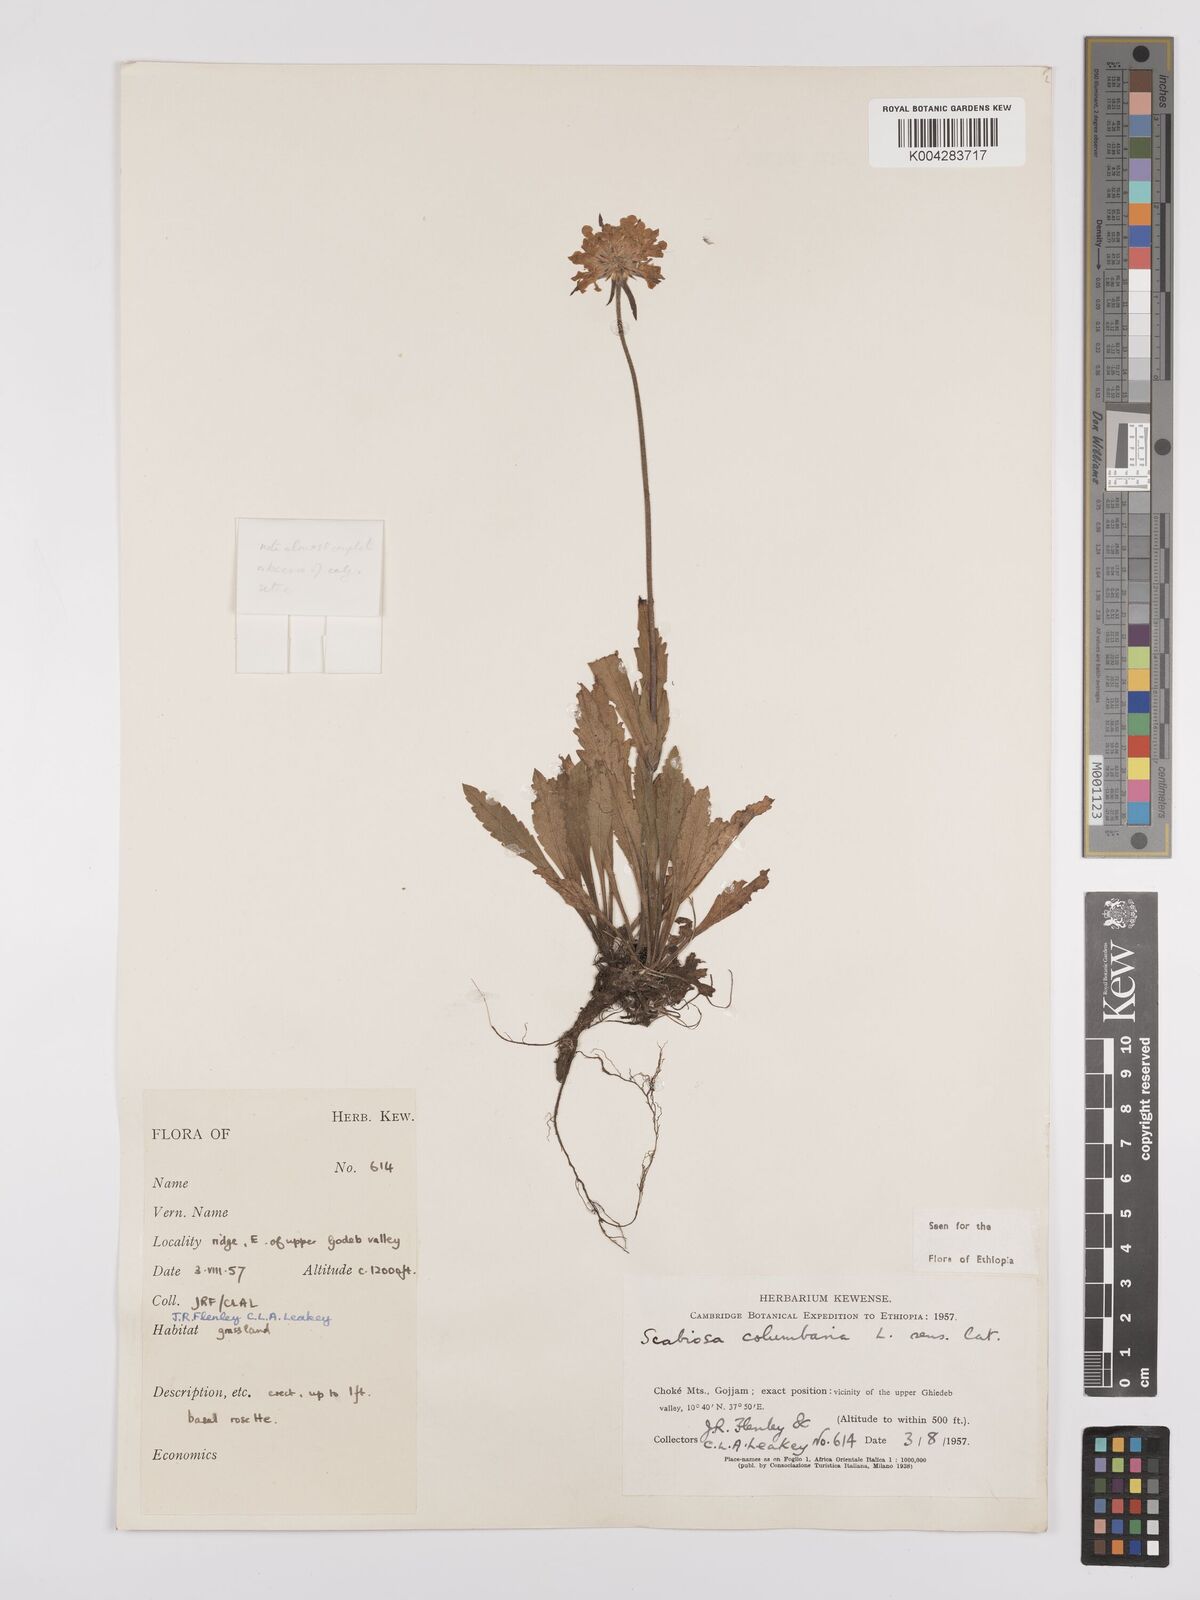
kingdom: Plantae
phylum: Tracheophyta
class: Magnoliopsida
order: Dipsacales
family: Caprifoliaceae
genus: Scabiosa
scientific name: Scabiosa columbaria
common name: Small scabious
